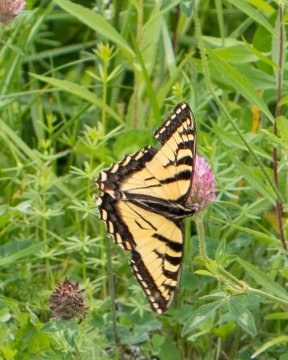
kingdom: Animalia
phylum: Arthropoda
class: Insecta
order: Lepidoptera
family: Papilionidae
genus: Pterourus
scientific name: Pterourus
